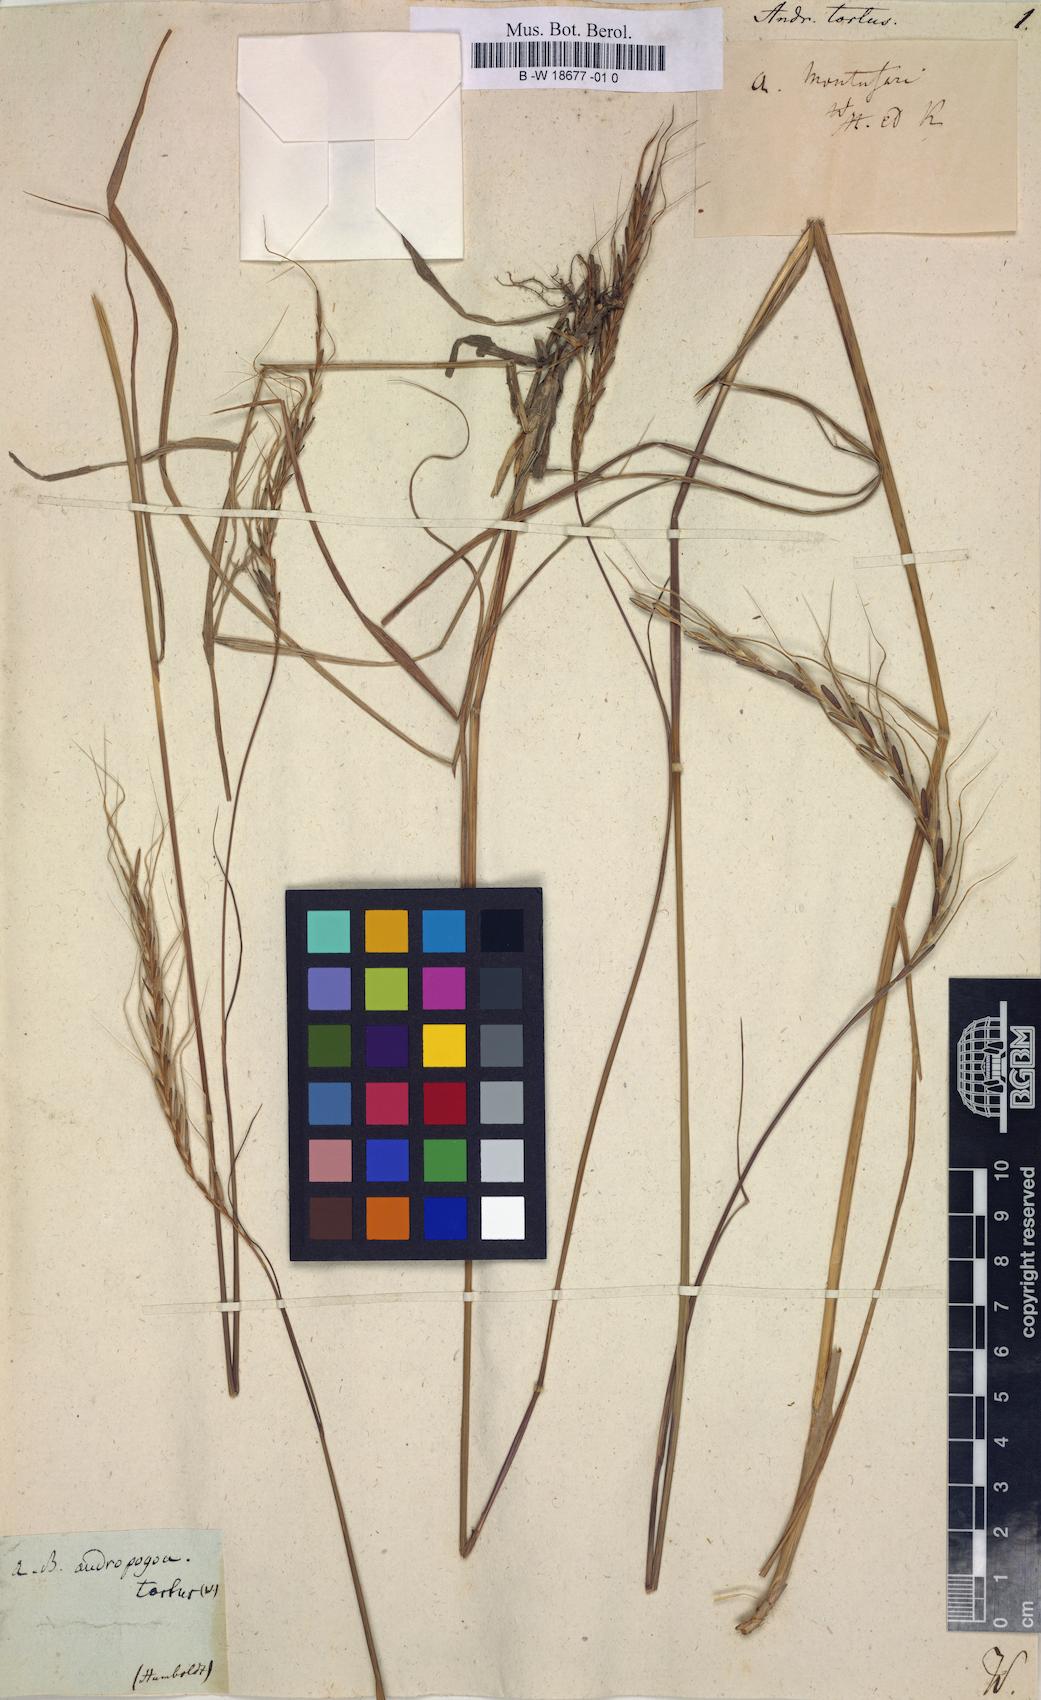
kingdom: Plantae
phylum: Tracheophyta
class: Liliopsida
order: Poales
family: Poaceae
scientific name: Poaceae
